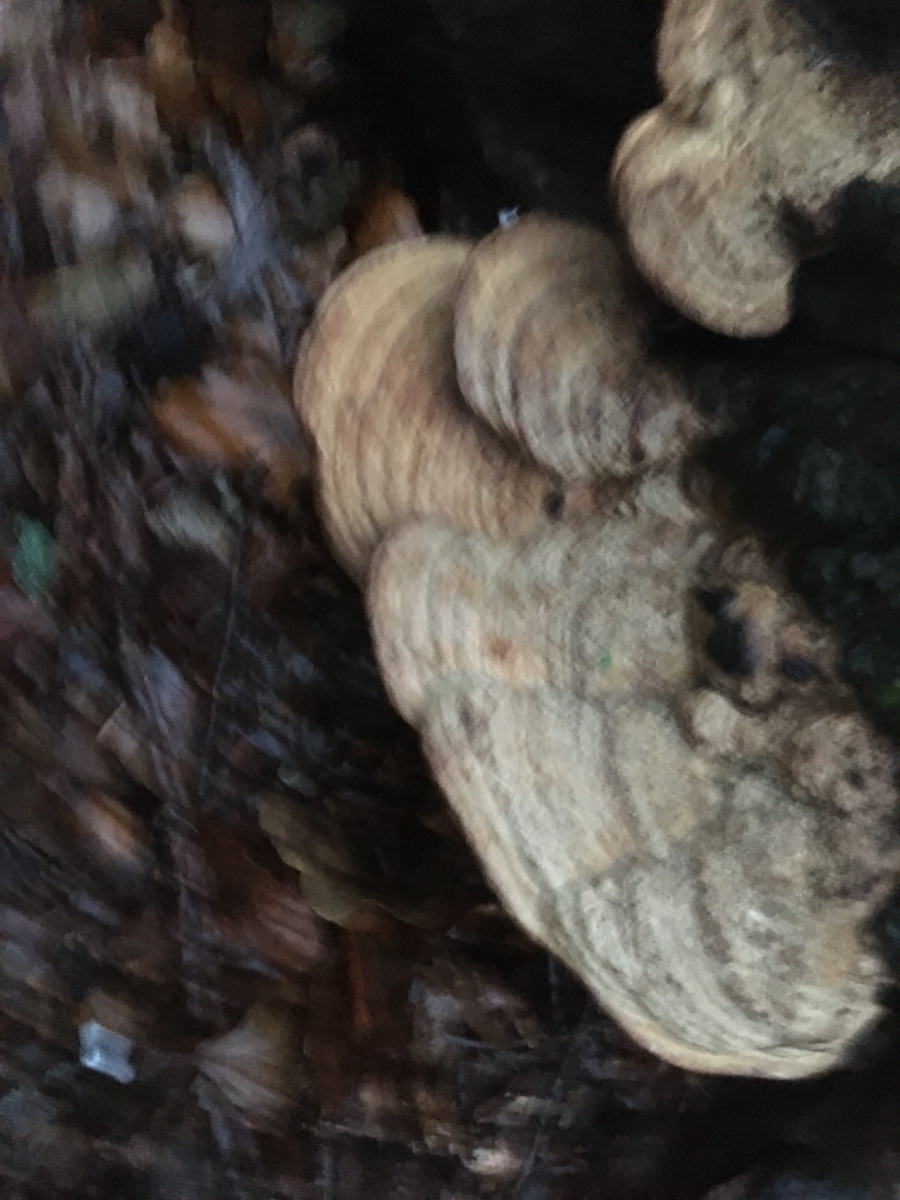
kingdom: Fungi
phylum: Basidiomycota
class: Agaricomycetes
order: Polyporales
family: Fomitopsidaceae
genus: Daedalea
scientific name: Daedalea quercina
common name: ege-labyrintsvamp
